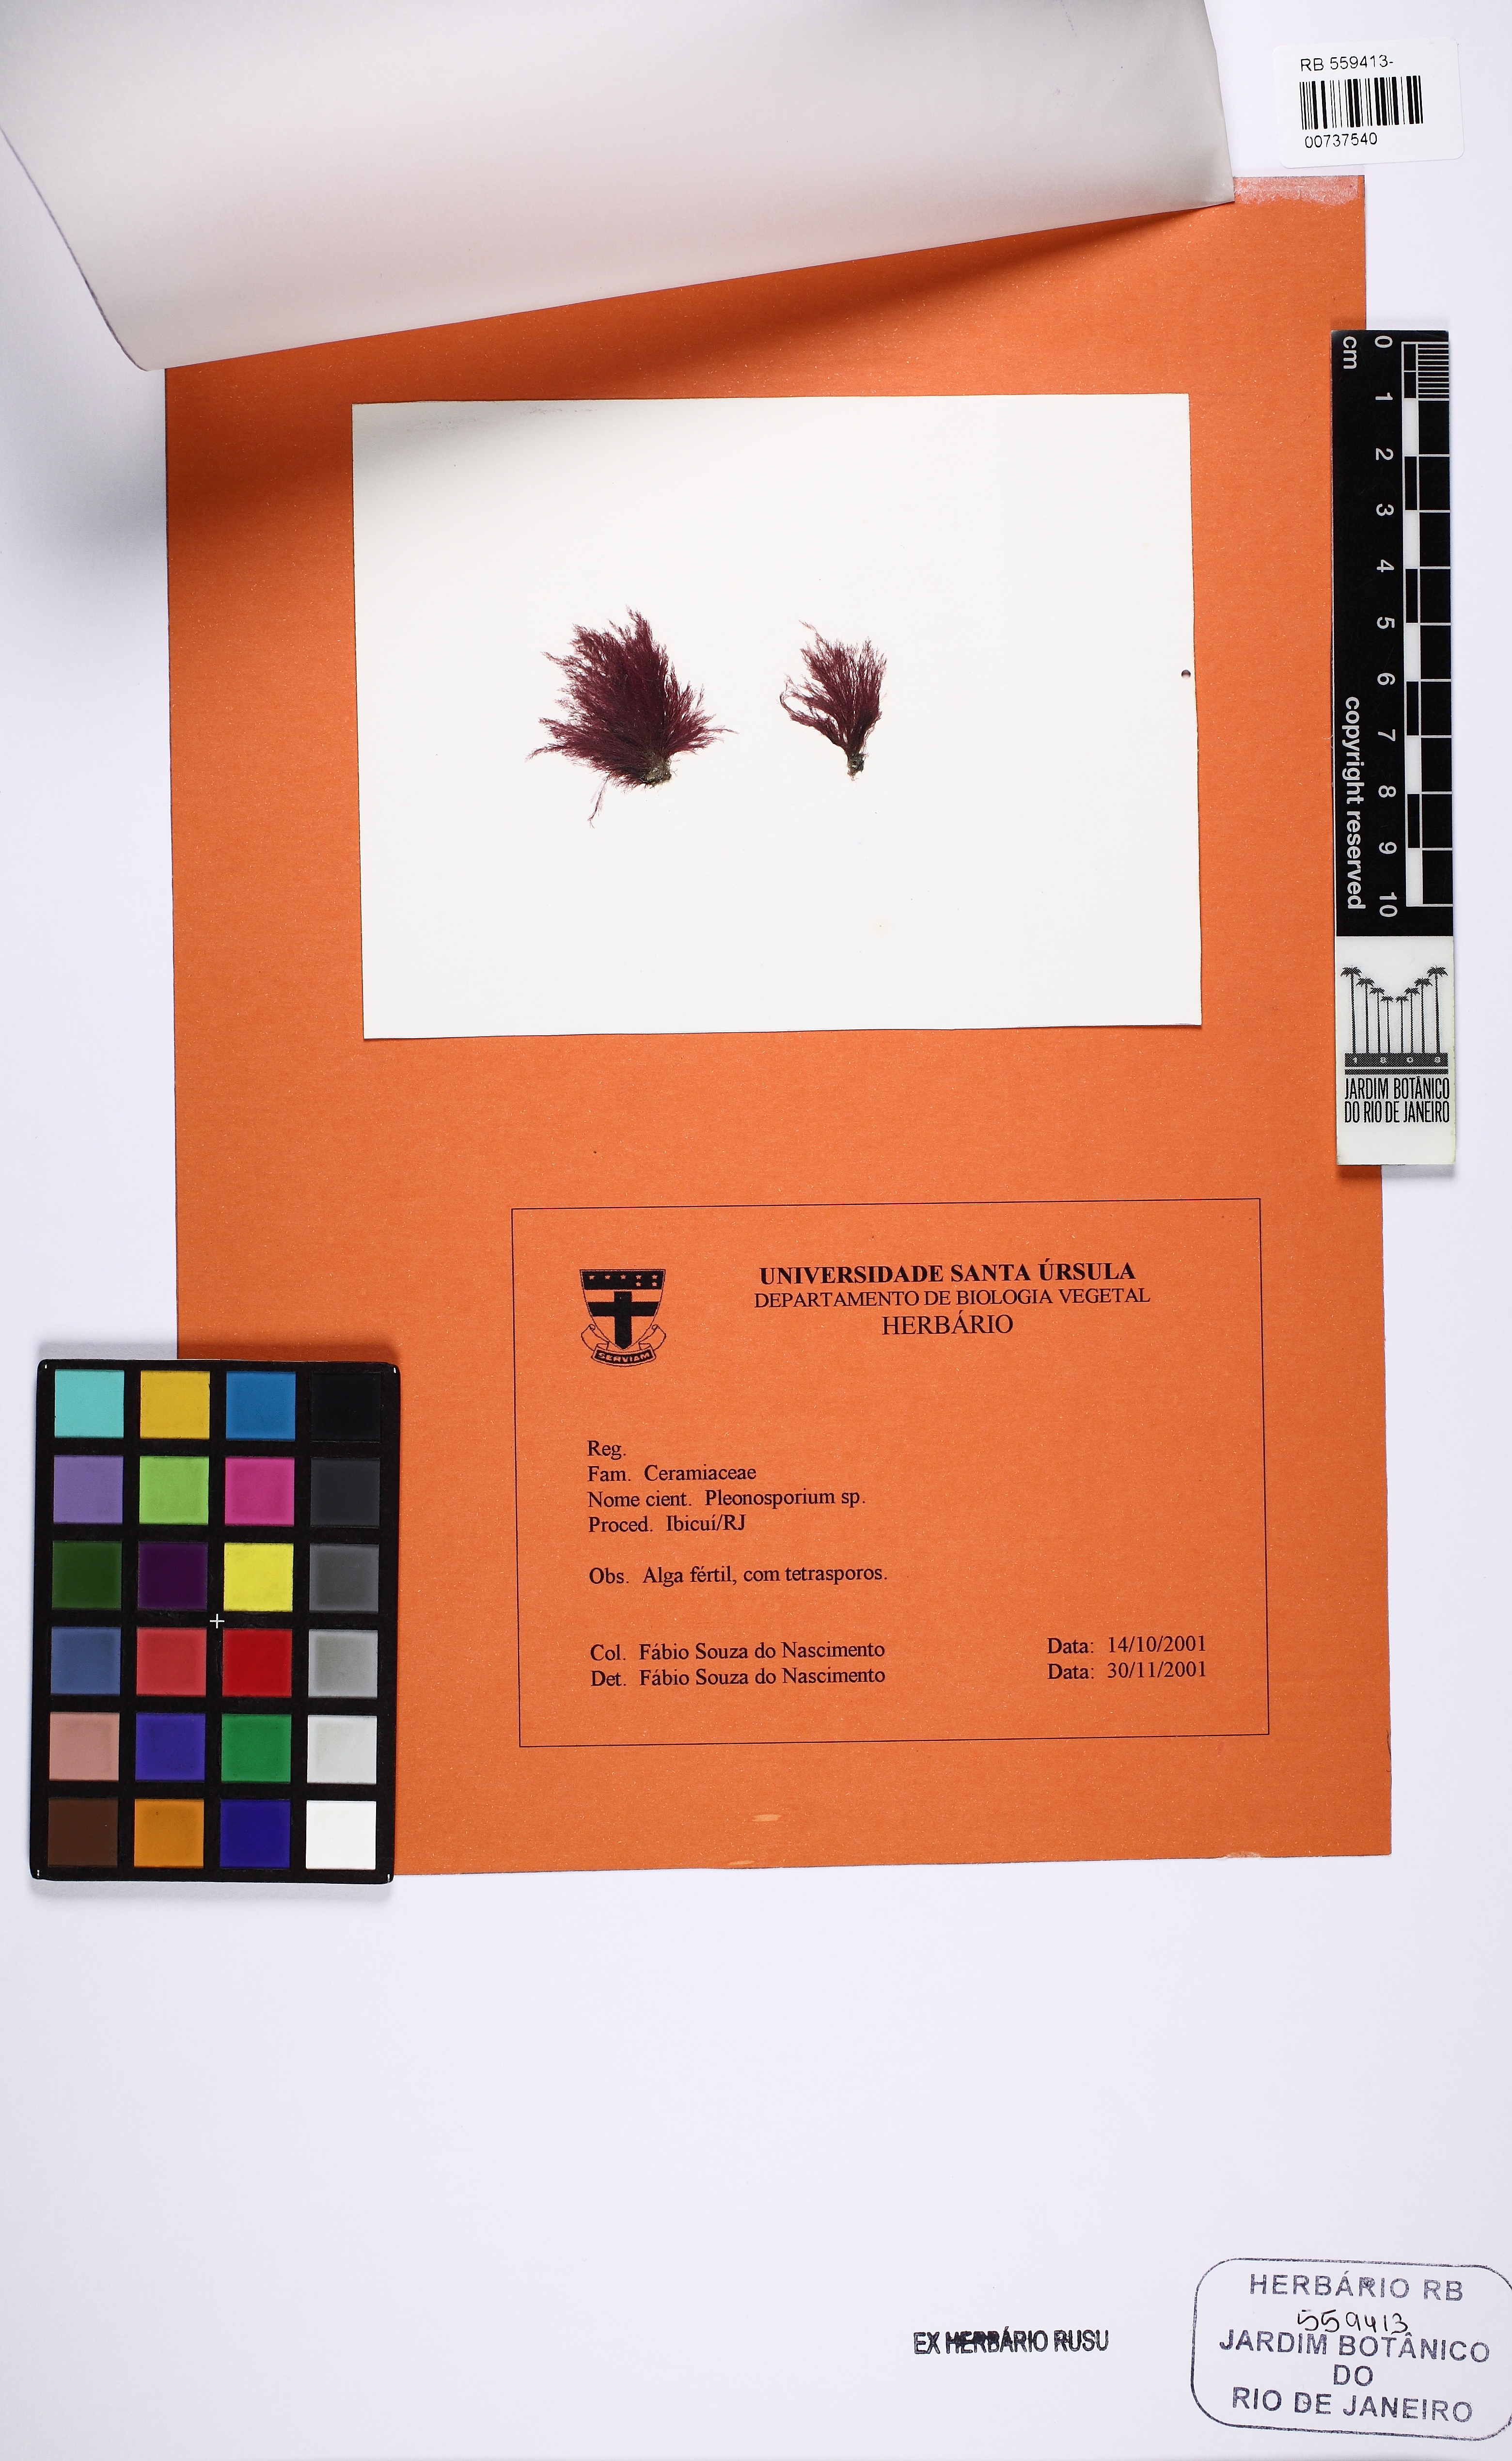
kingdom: Plantae
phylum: Rhodophyta
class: Florideophyceae
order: Ceramiales
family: Wrangeliaceae
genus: Pleonosporium
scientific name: Pleonosporium
